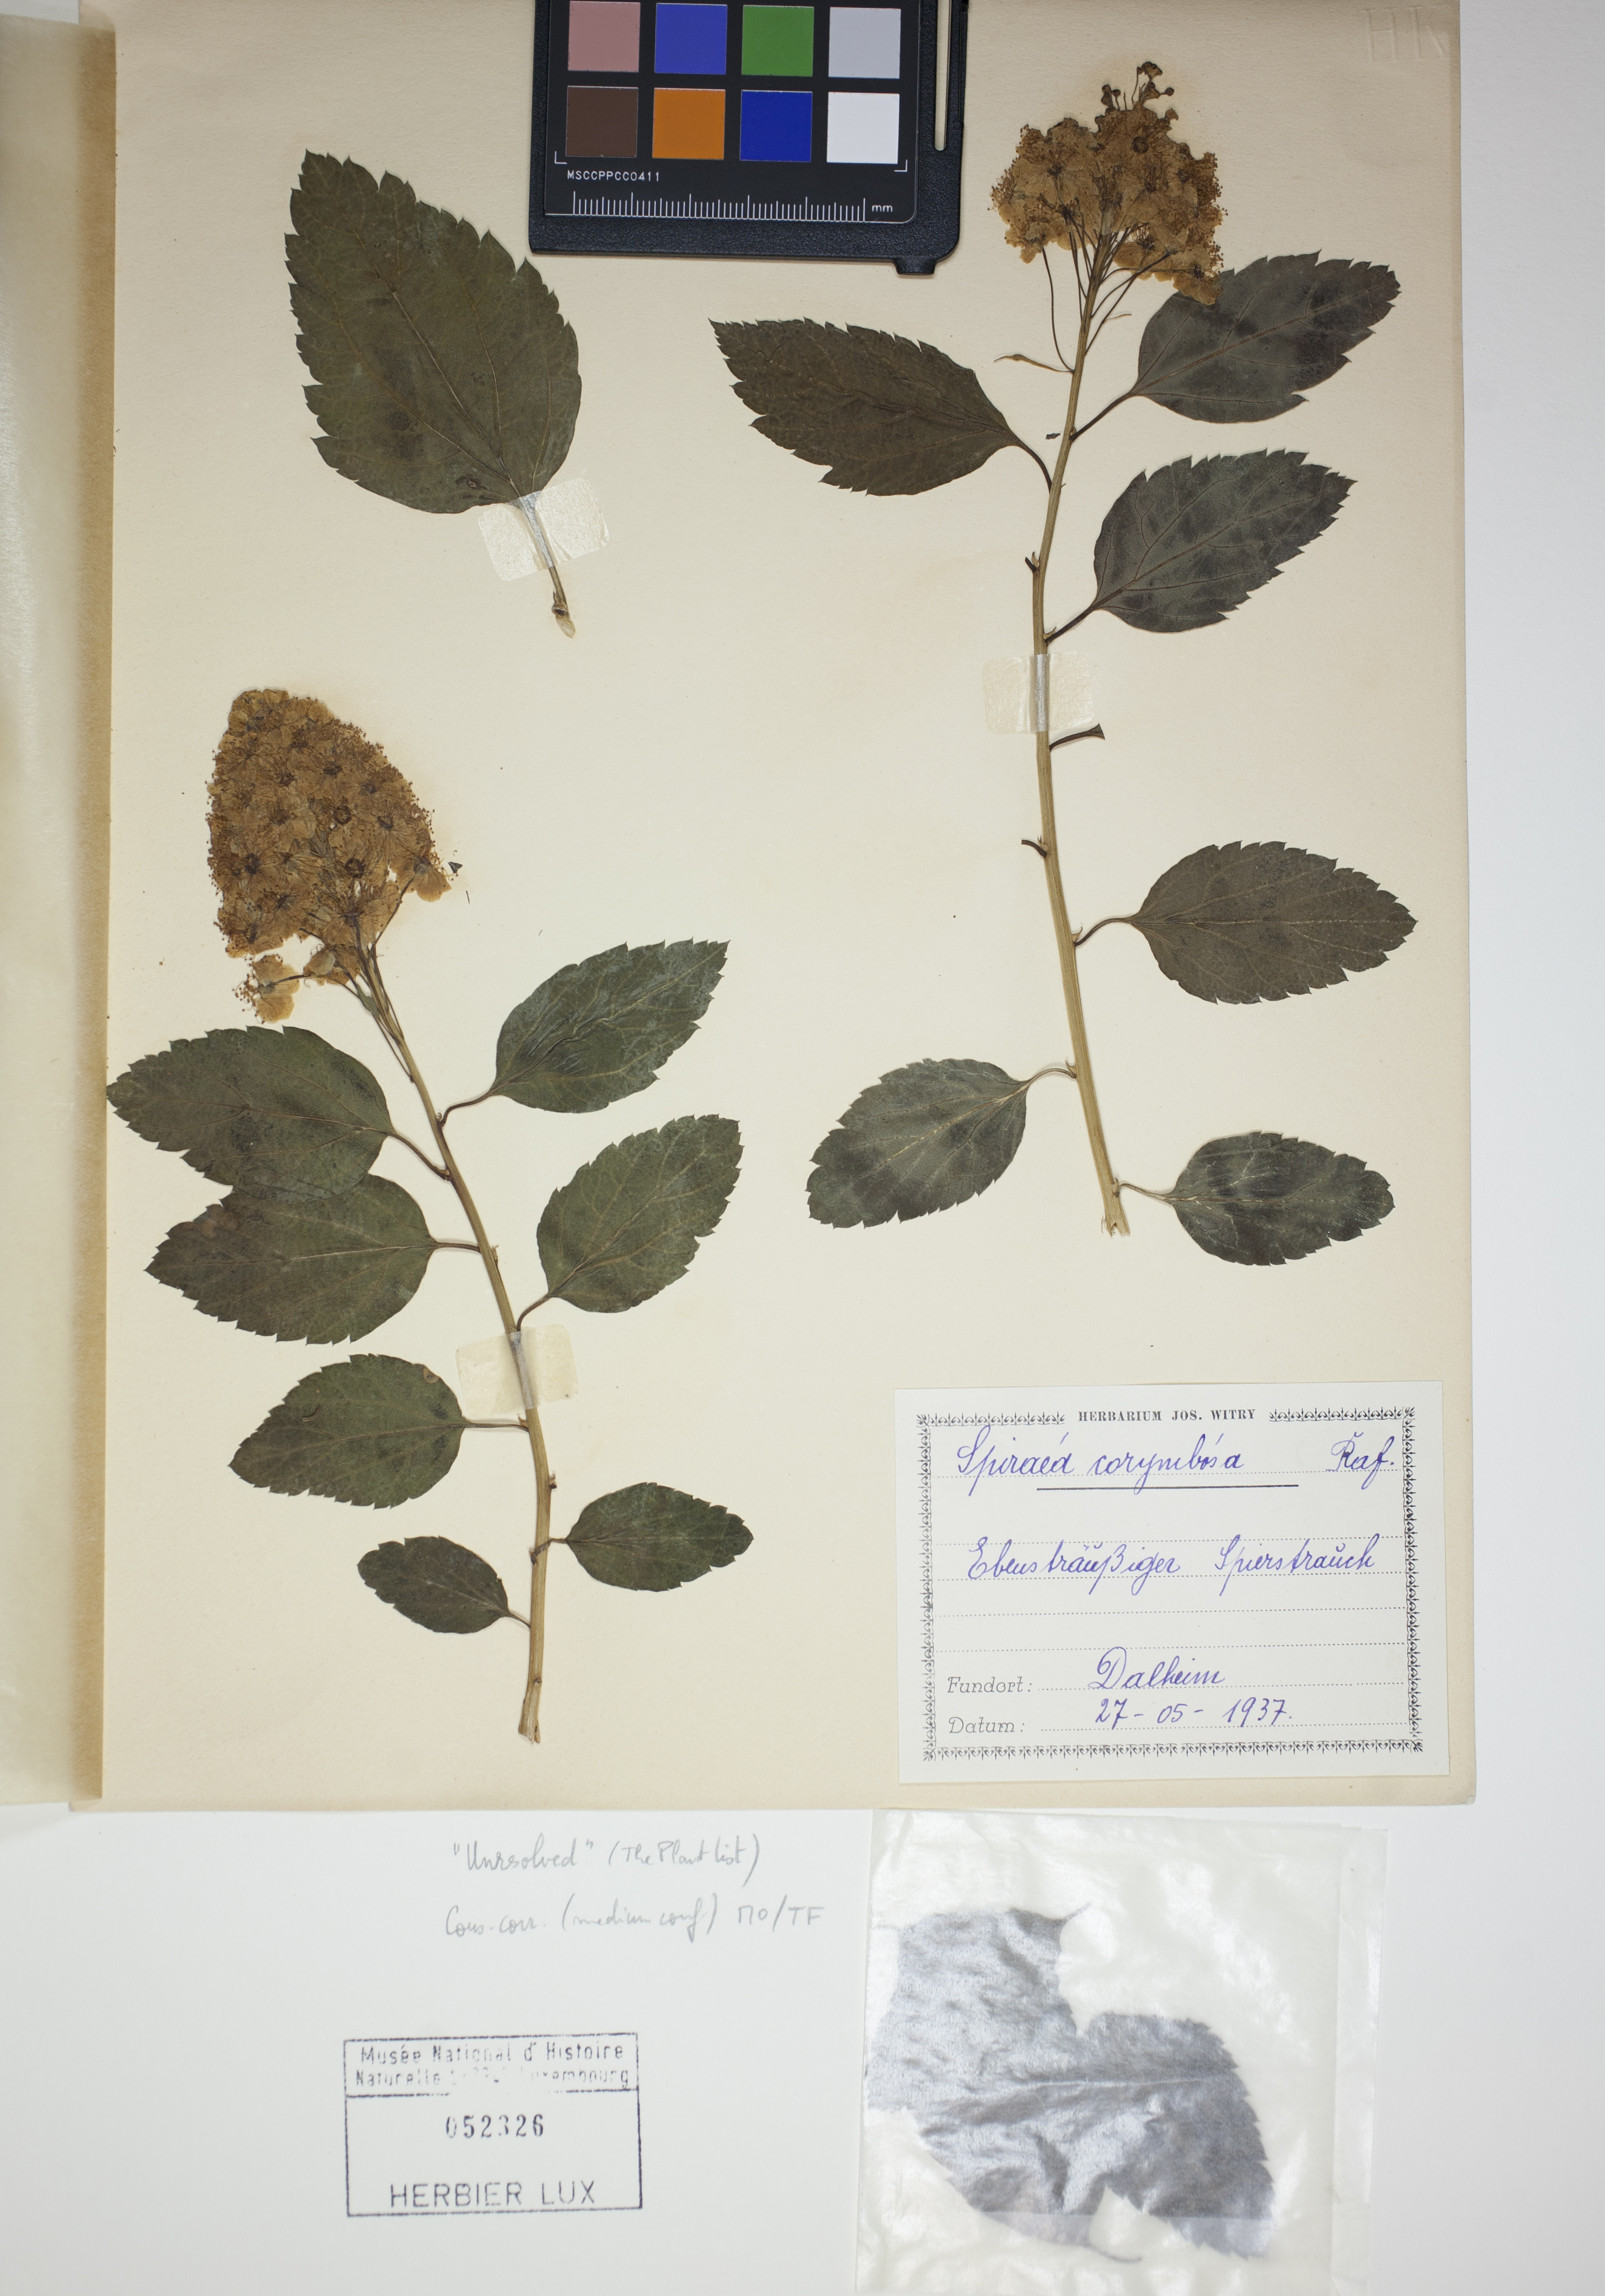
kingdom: Plantae
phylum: Tracheophyta
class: Magnoliopsida
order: Rosales
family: Rosaceae
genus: Spiraea
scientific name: Spiraea corymbosa
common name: Corymbed meadowsweet
